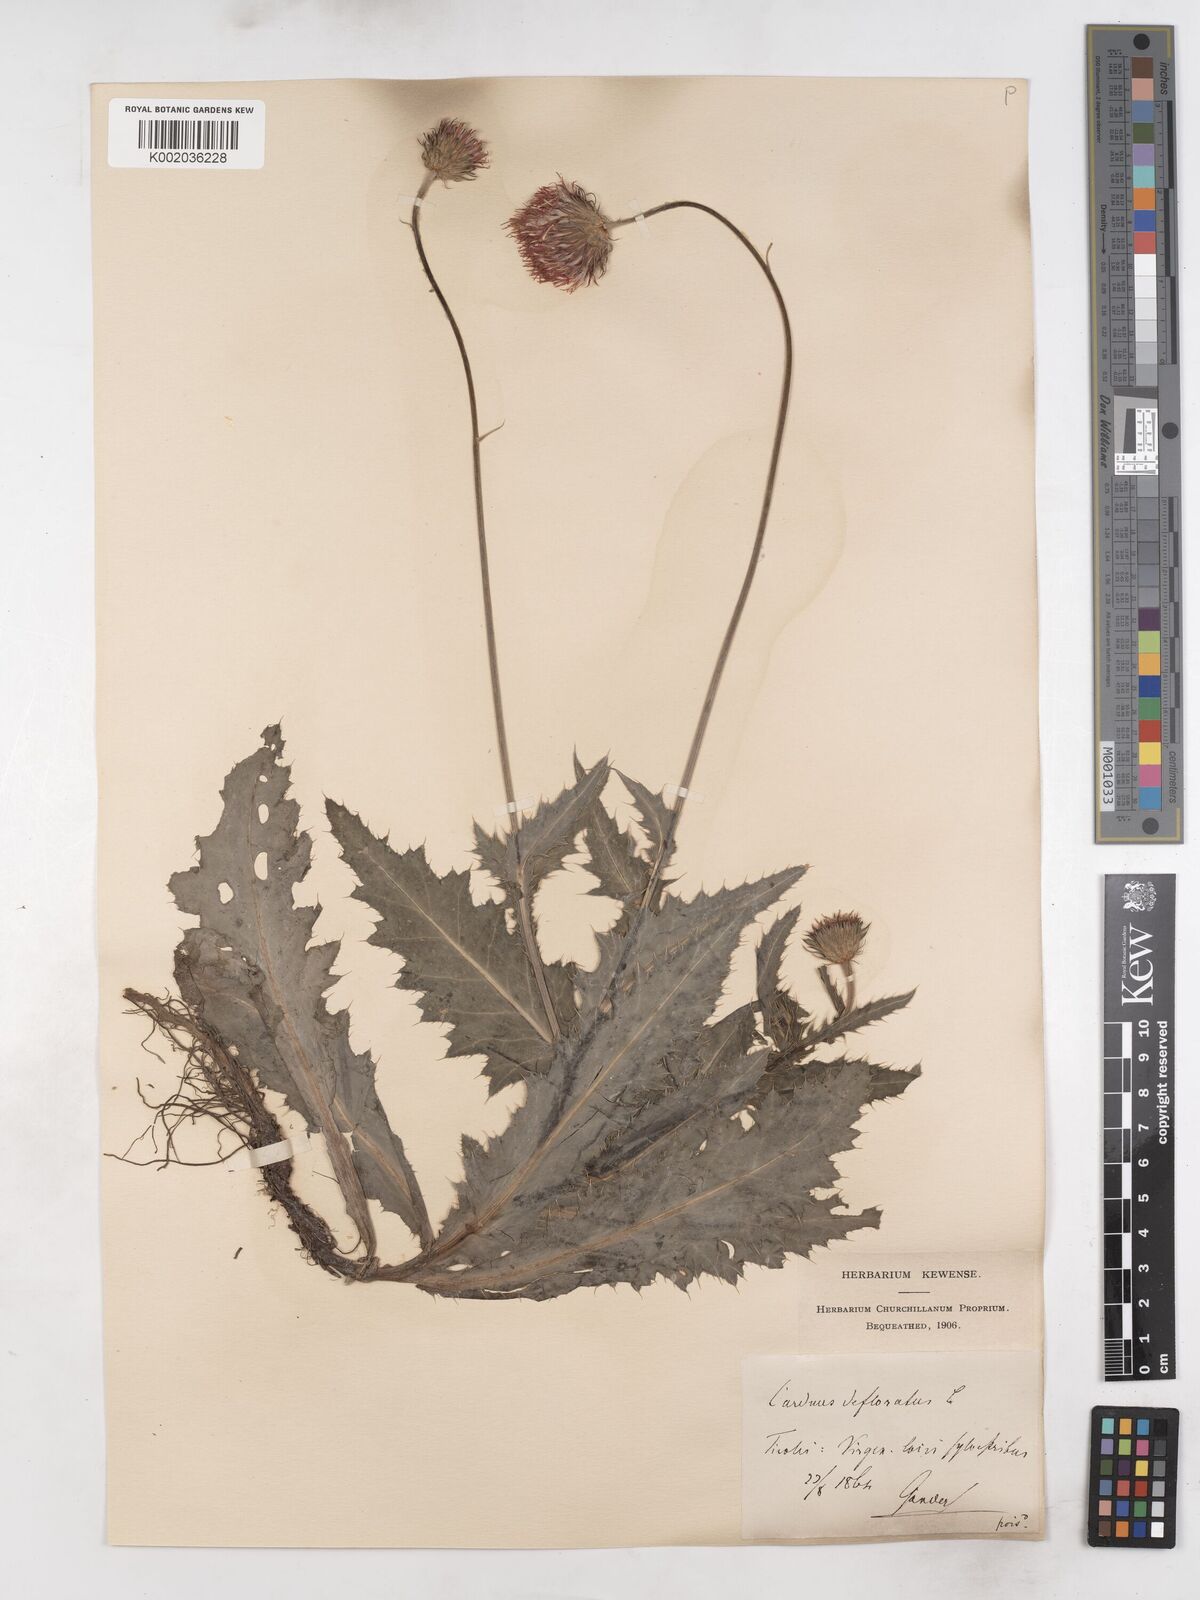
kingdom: Plantae
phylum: Tracheophyta
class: Magnoliopsida
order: Asterales
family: Asteraceae
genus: Carduus
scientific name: Carduus defloratus
